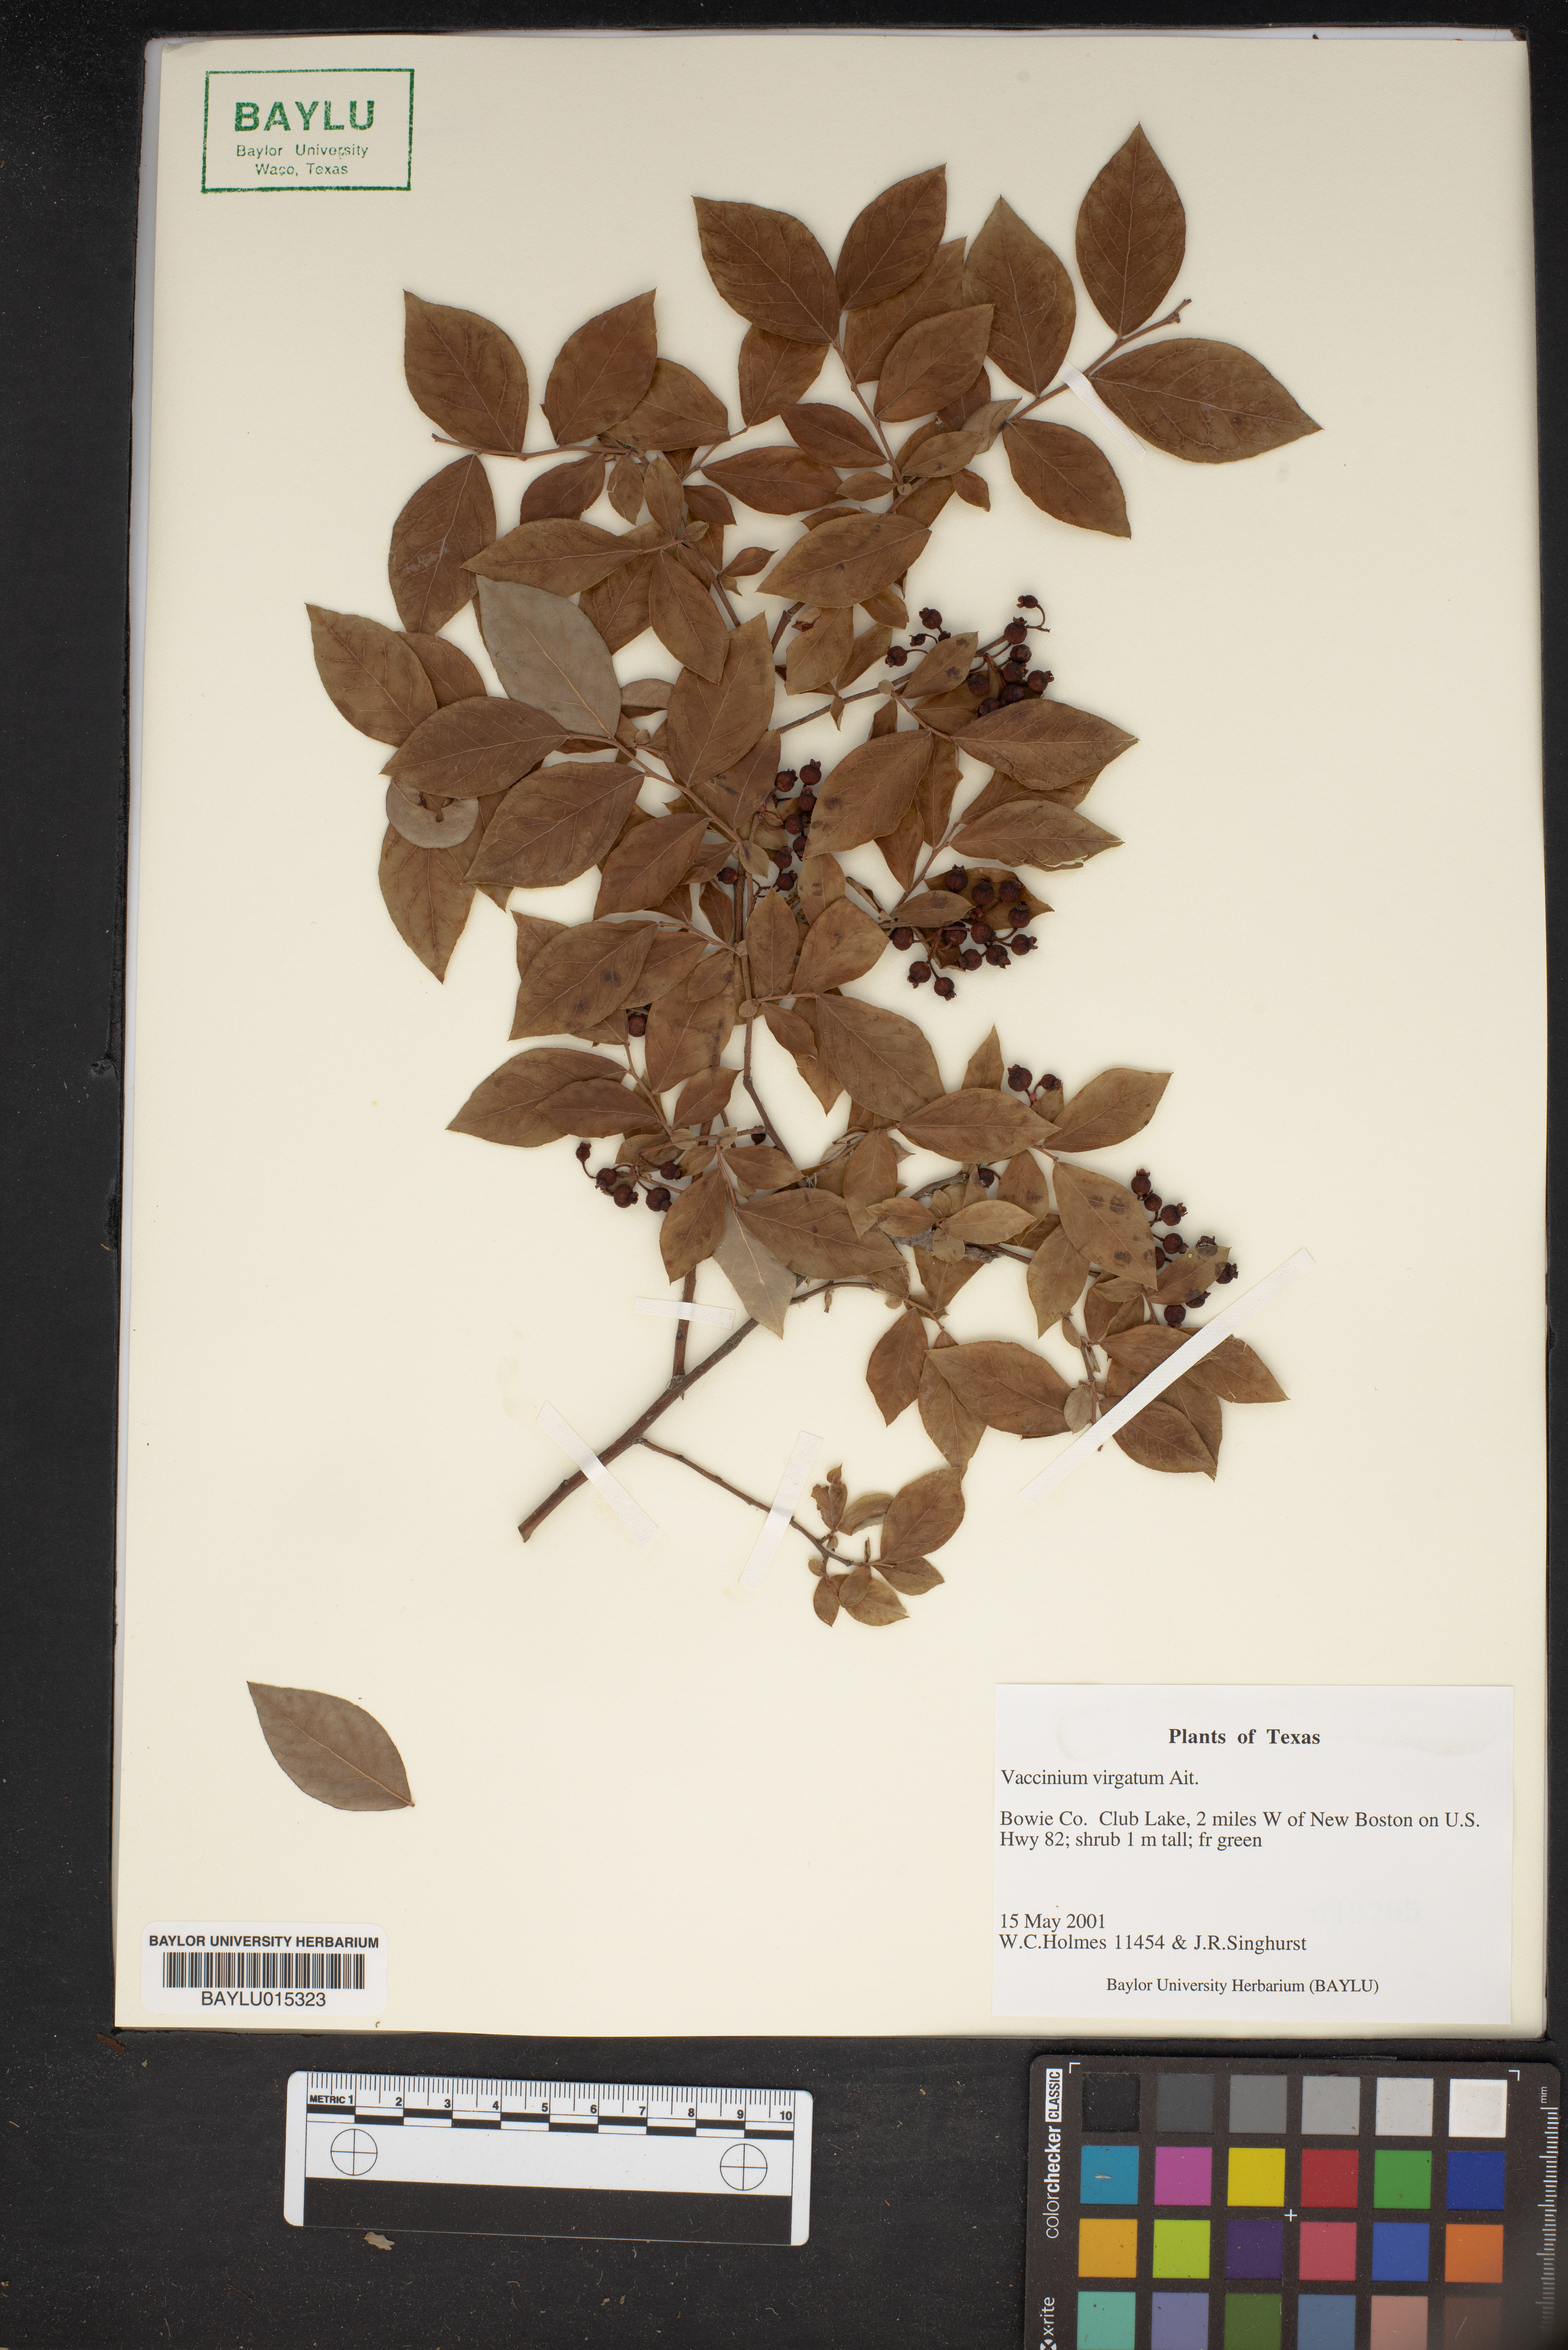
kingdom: Plantae
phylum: Tracheophyta
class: Magnoliopsida
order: Ericales
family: Ericaceae
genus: Vaccinium
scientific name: Vaccinium corymbosum
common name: Blueberry
